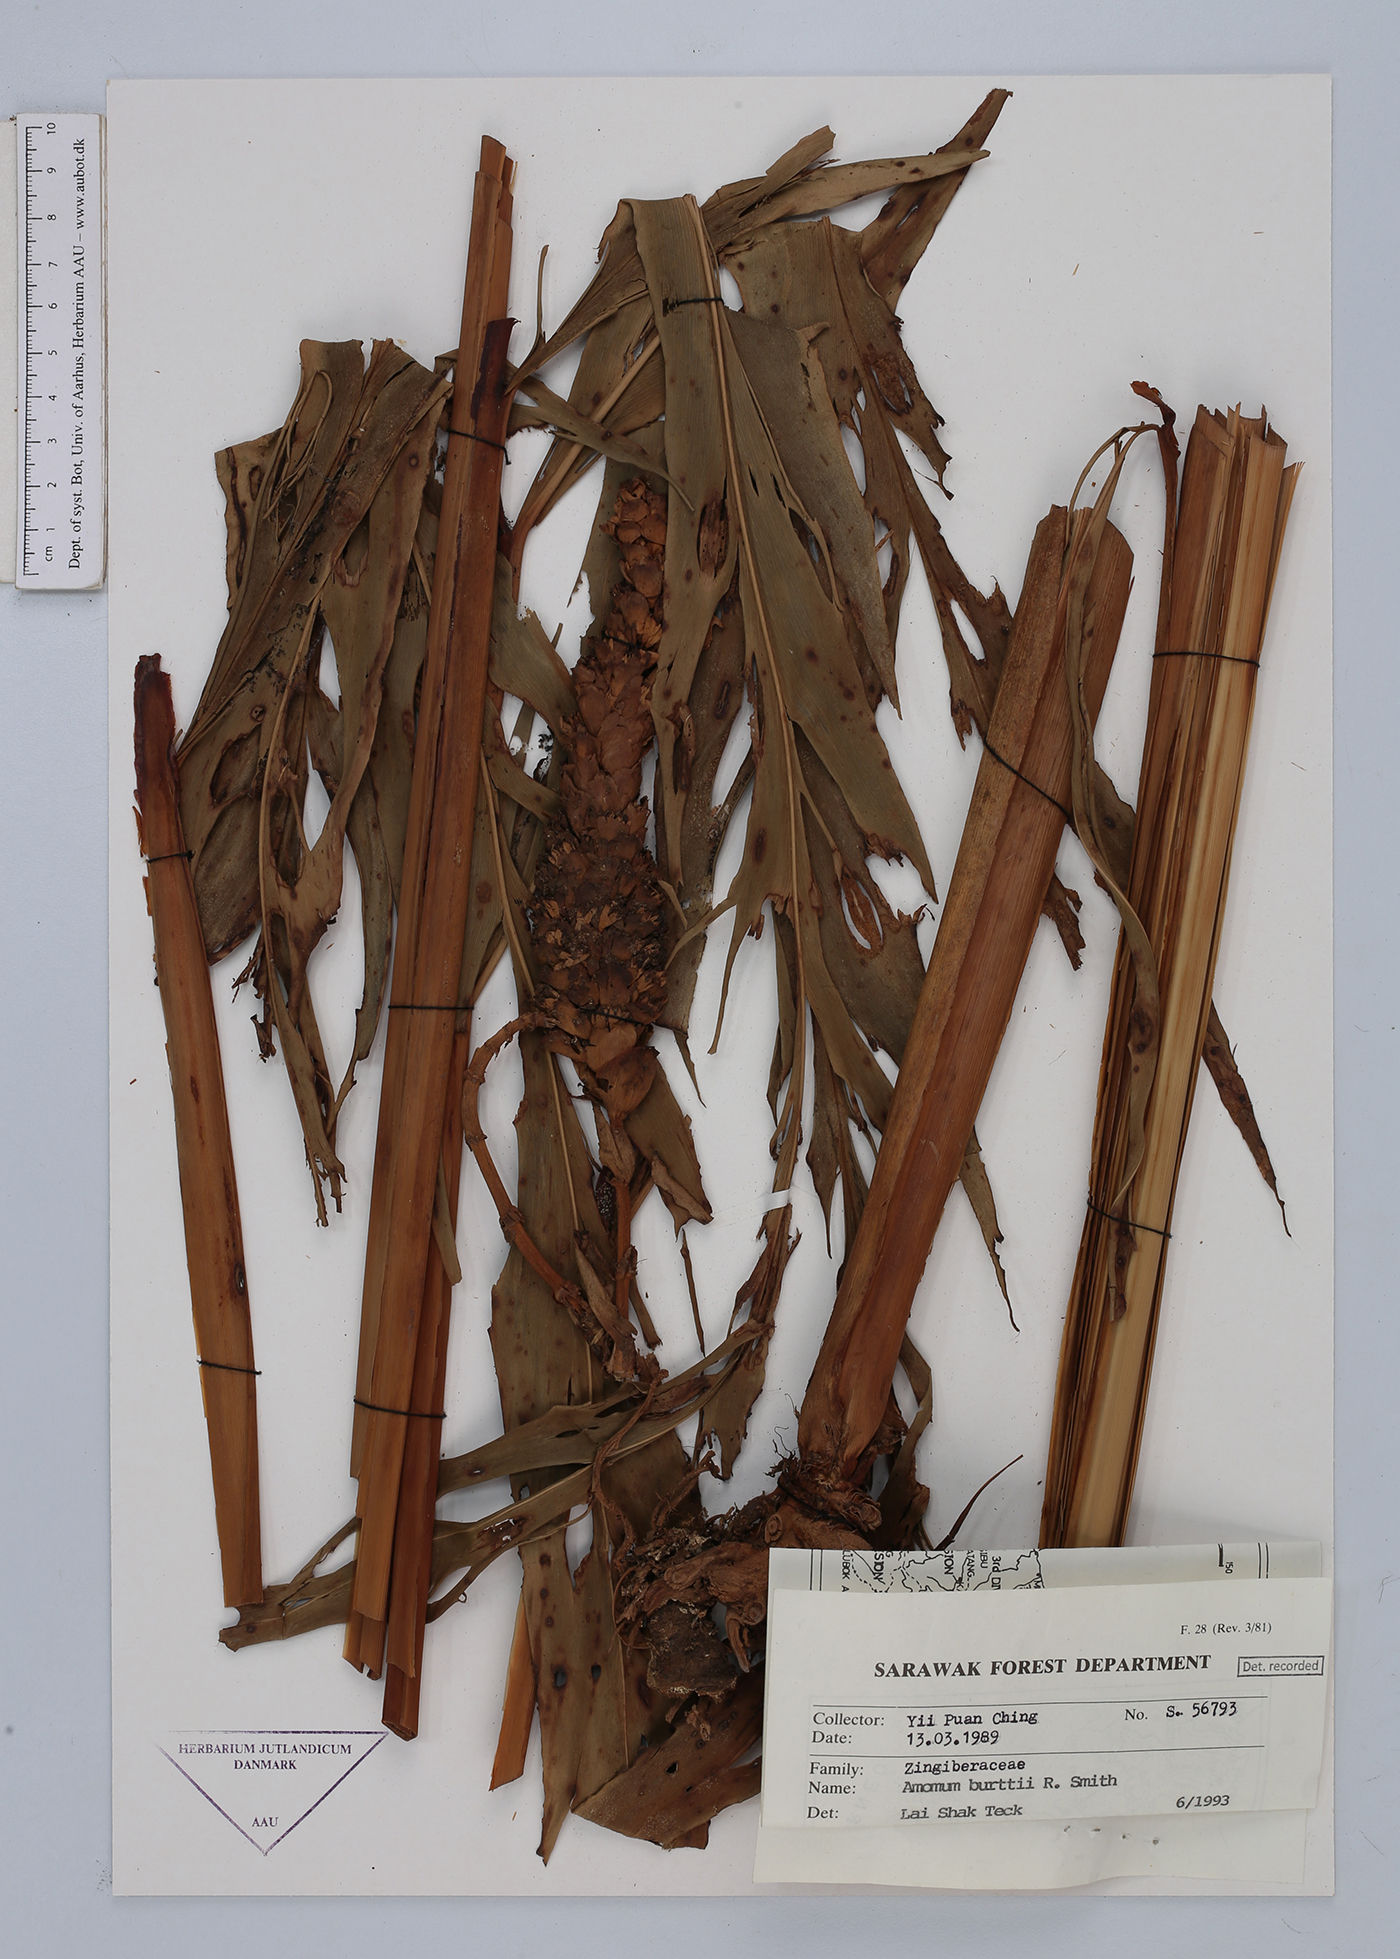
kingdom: Plantae
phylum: Tracheophyta
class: Liliopsida
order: Zingiberales
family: Zingiberaceae
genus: Sulettaria
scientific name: Sulettaria burttii
